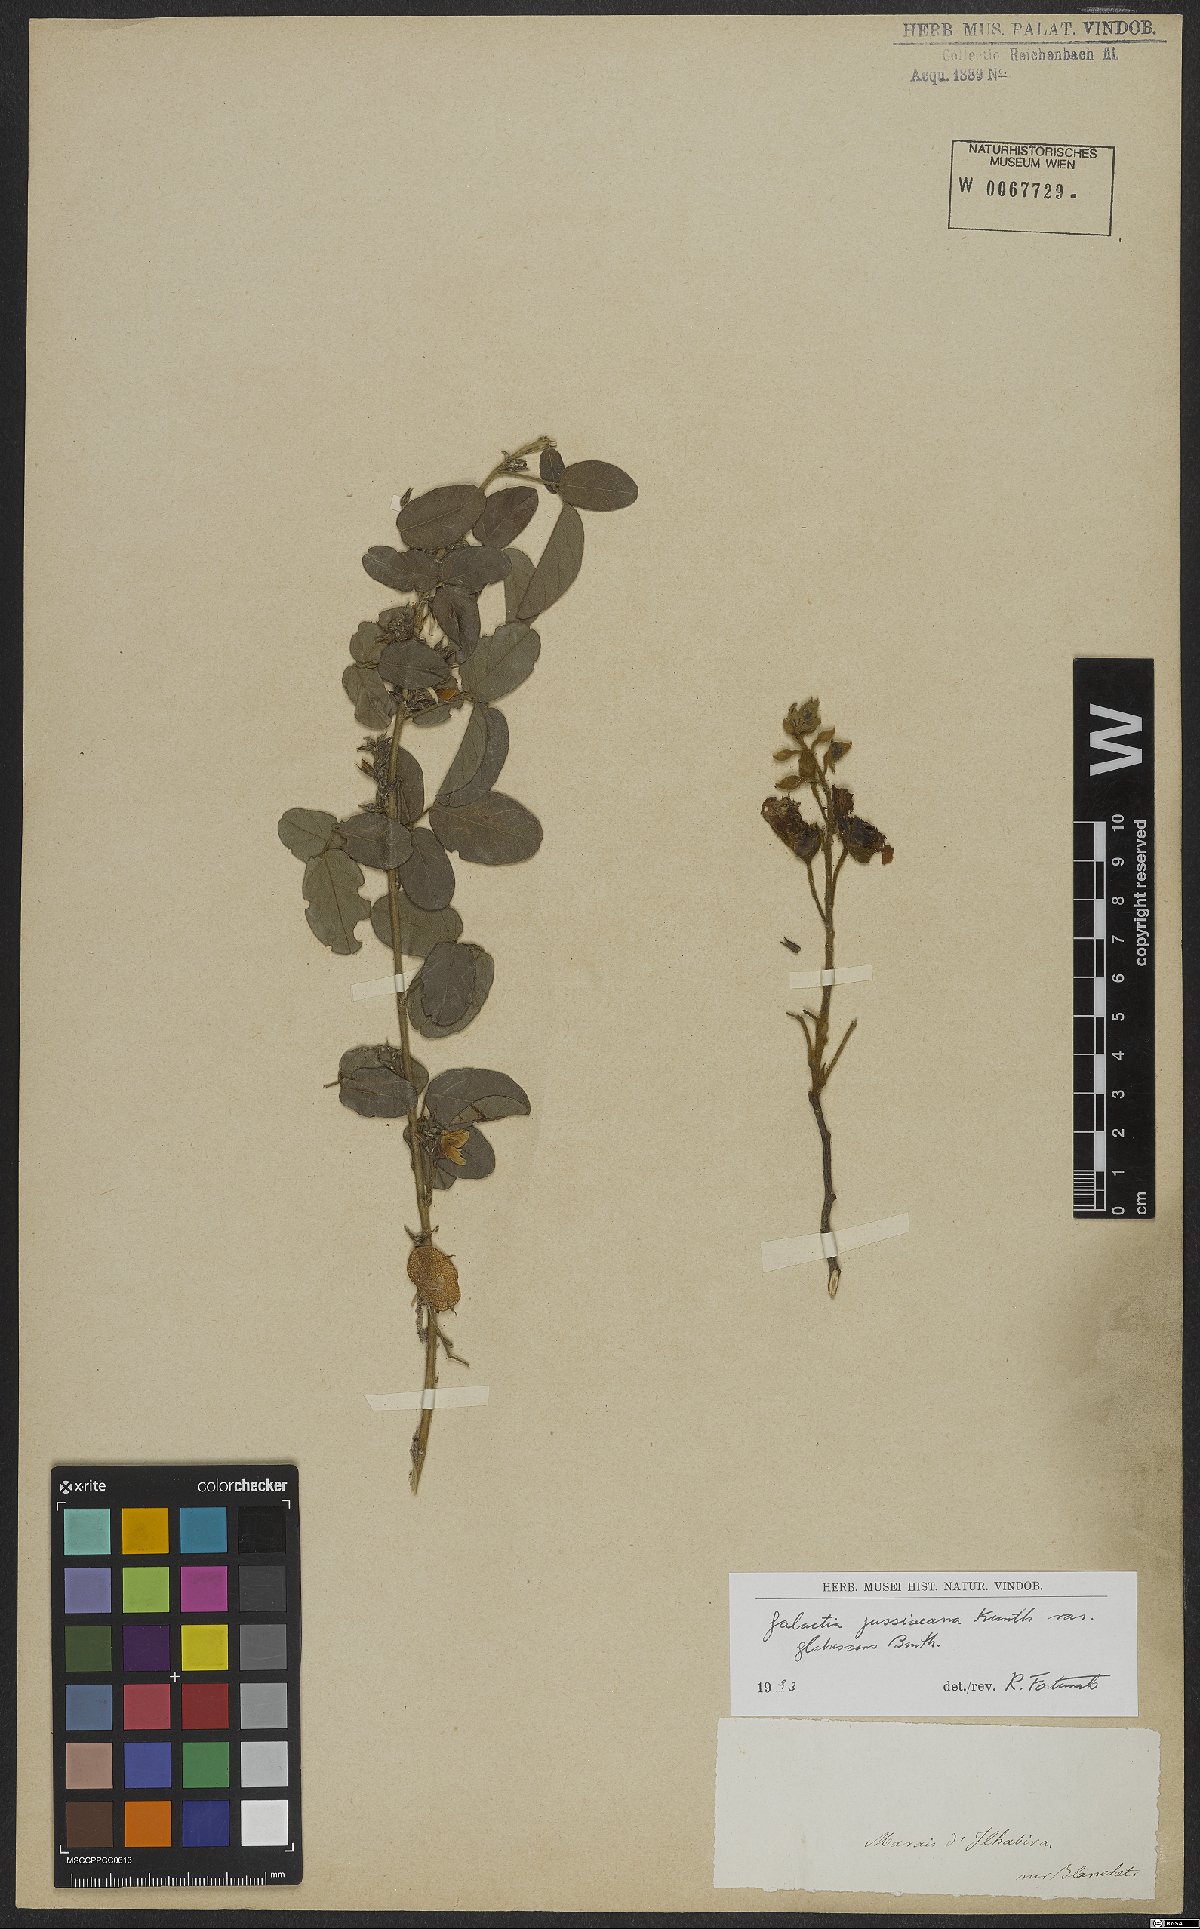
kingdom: Plantae
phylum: Tracheophyta
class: Magnoliopsida
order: Fabales
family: Fabaceae
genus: Galactia
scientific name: Galactia jussiaeana
